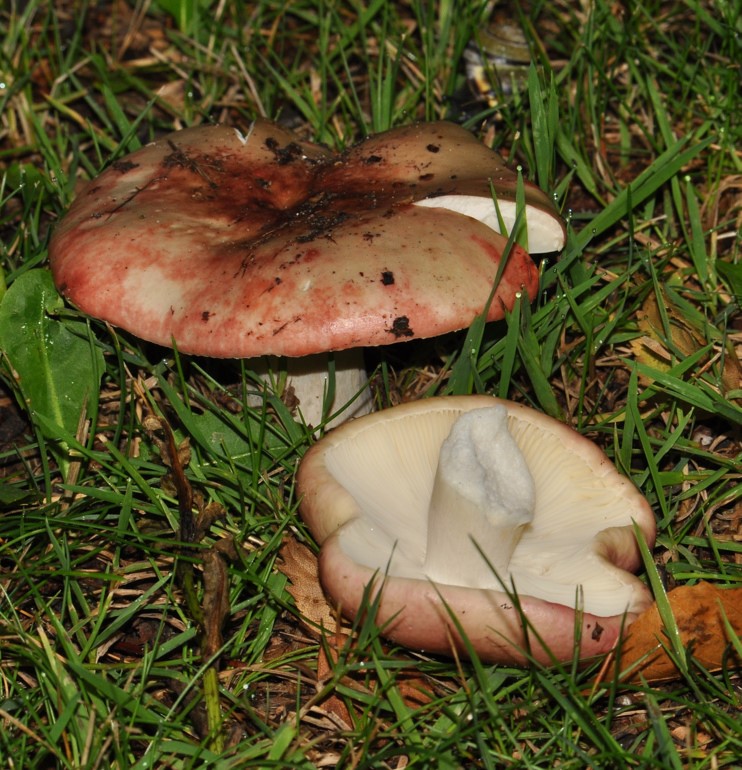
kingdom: Fungi
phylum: Basidiomycota
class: Agaricomycetes
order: Russulales
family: Russulaceae
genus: Russula
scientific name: Russula depallens
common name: falmende skørhat
